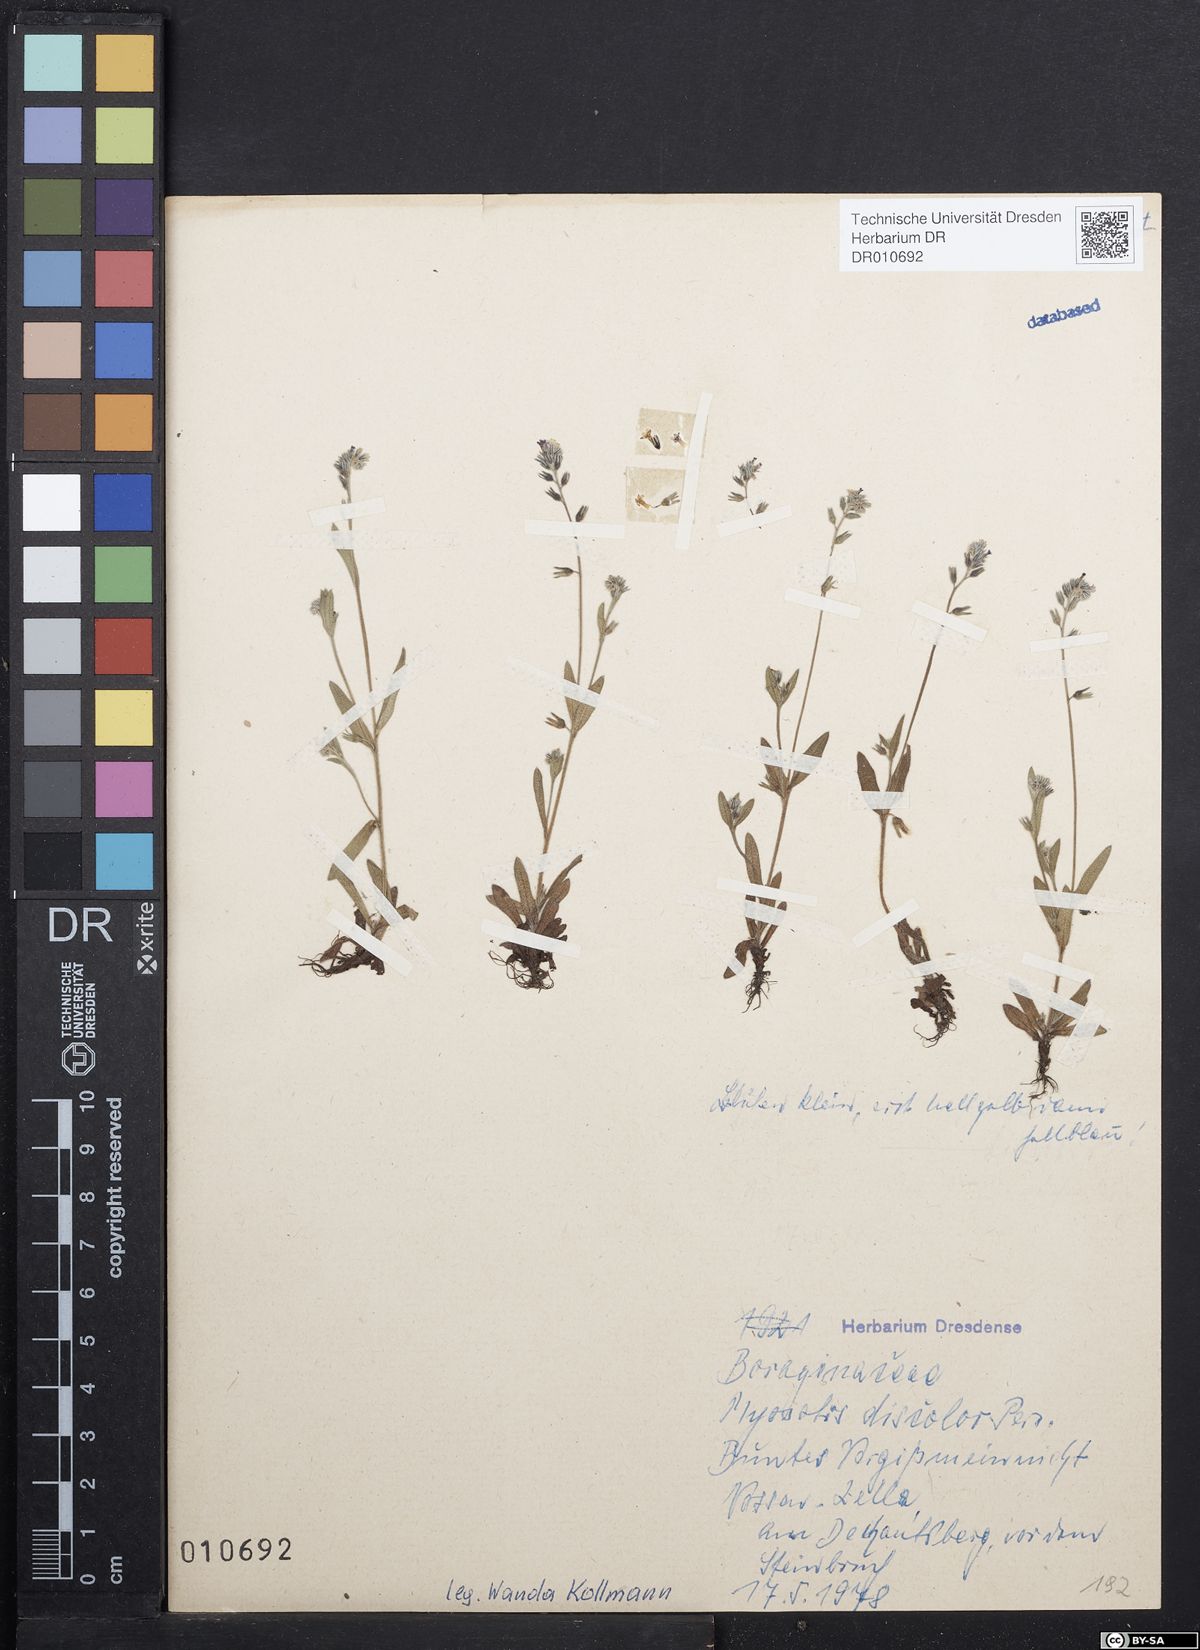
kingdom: Plantae
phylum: Tracheophyta
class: Magnoliopsida
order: Boraginales
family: Boraginaceae
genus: Myosotis
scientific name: Myosotis discolor
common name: Changing forget-me-not
